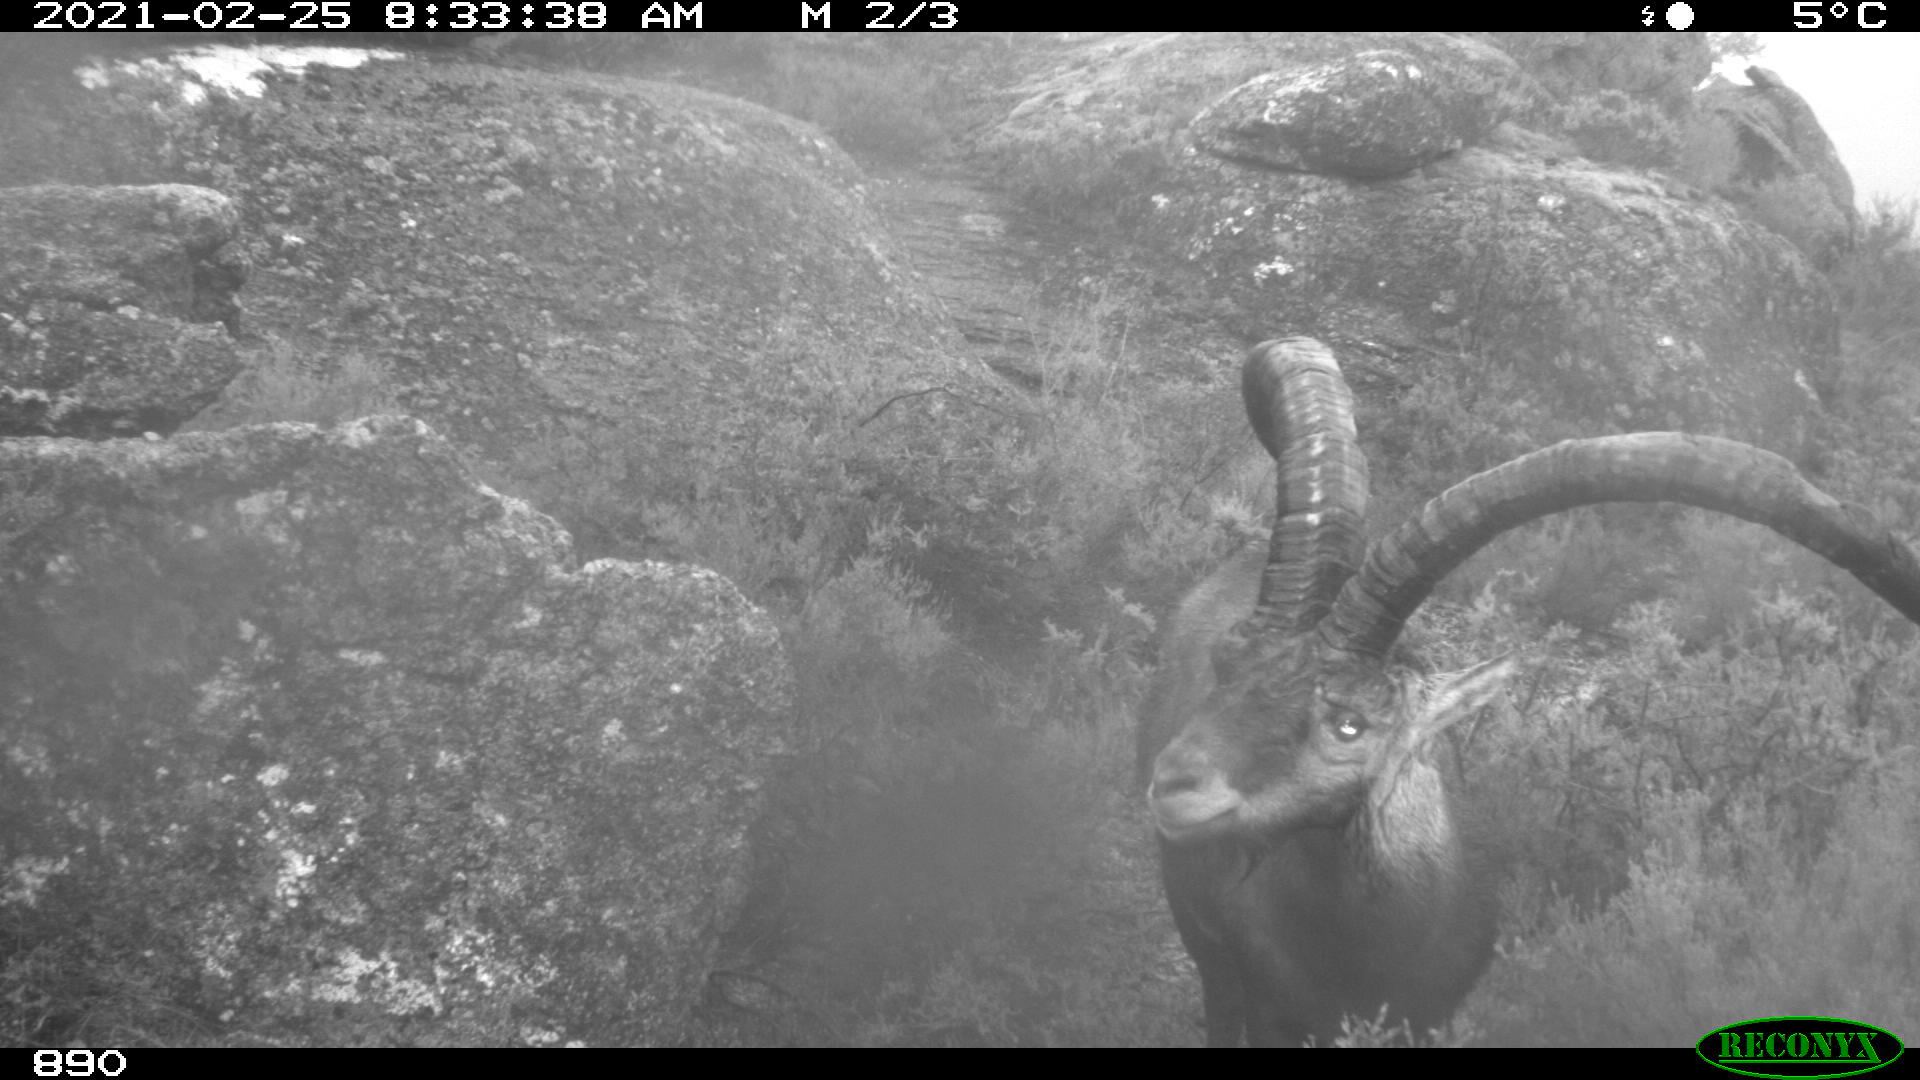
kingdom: Animalia
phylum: Chordata
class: Mammalia
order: Artiodactyla
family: Bovidae
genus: Capra
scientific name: Capra pyrenaica
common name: Spanish ibex
